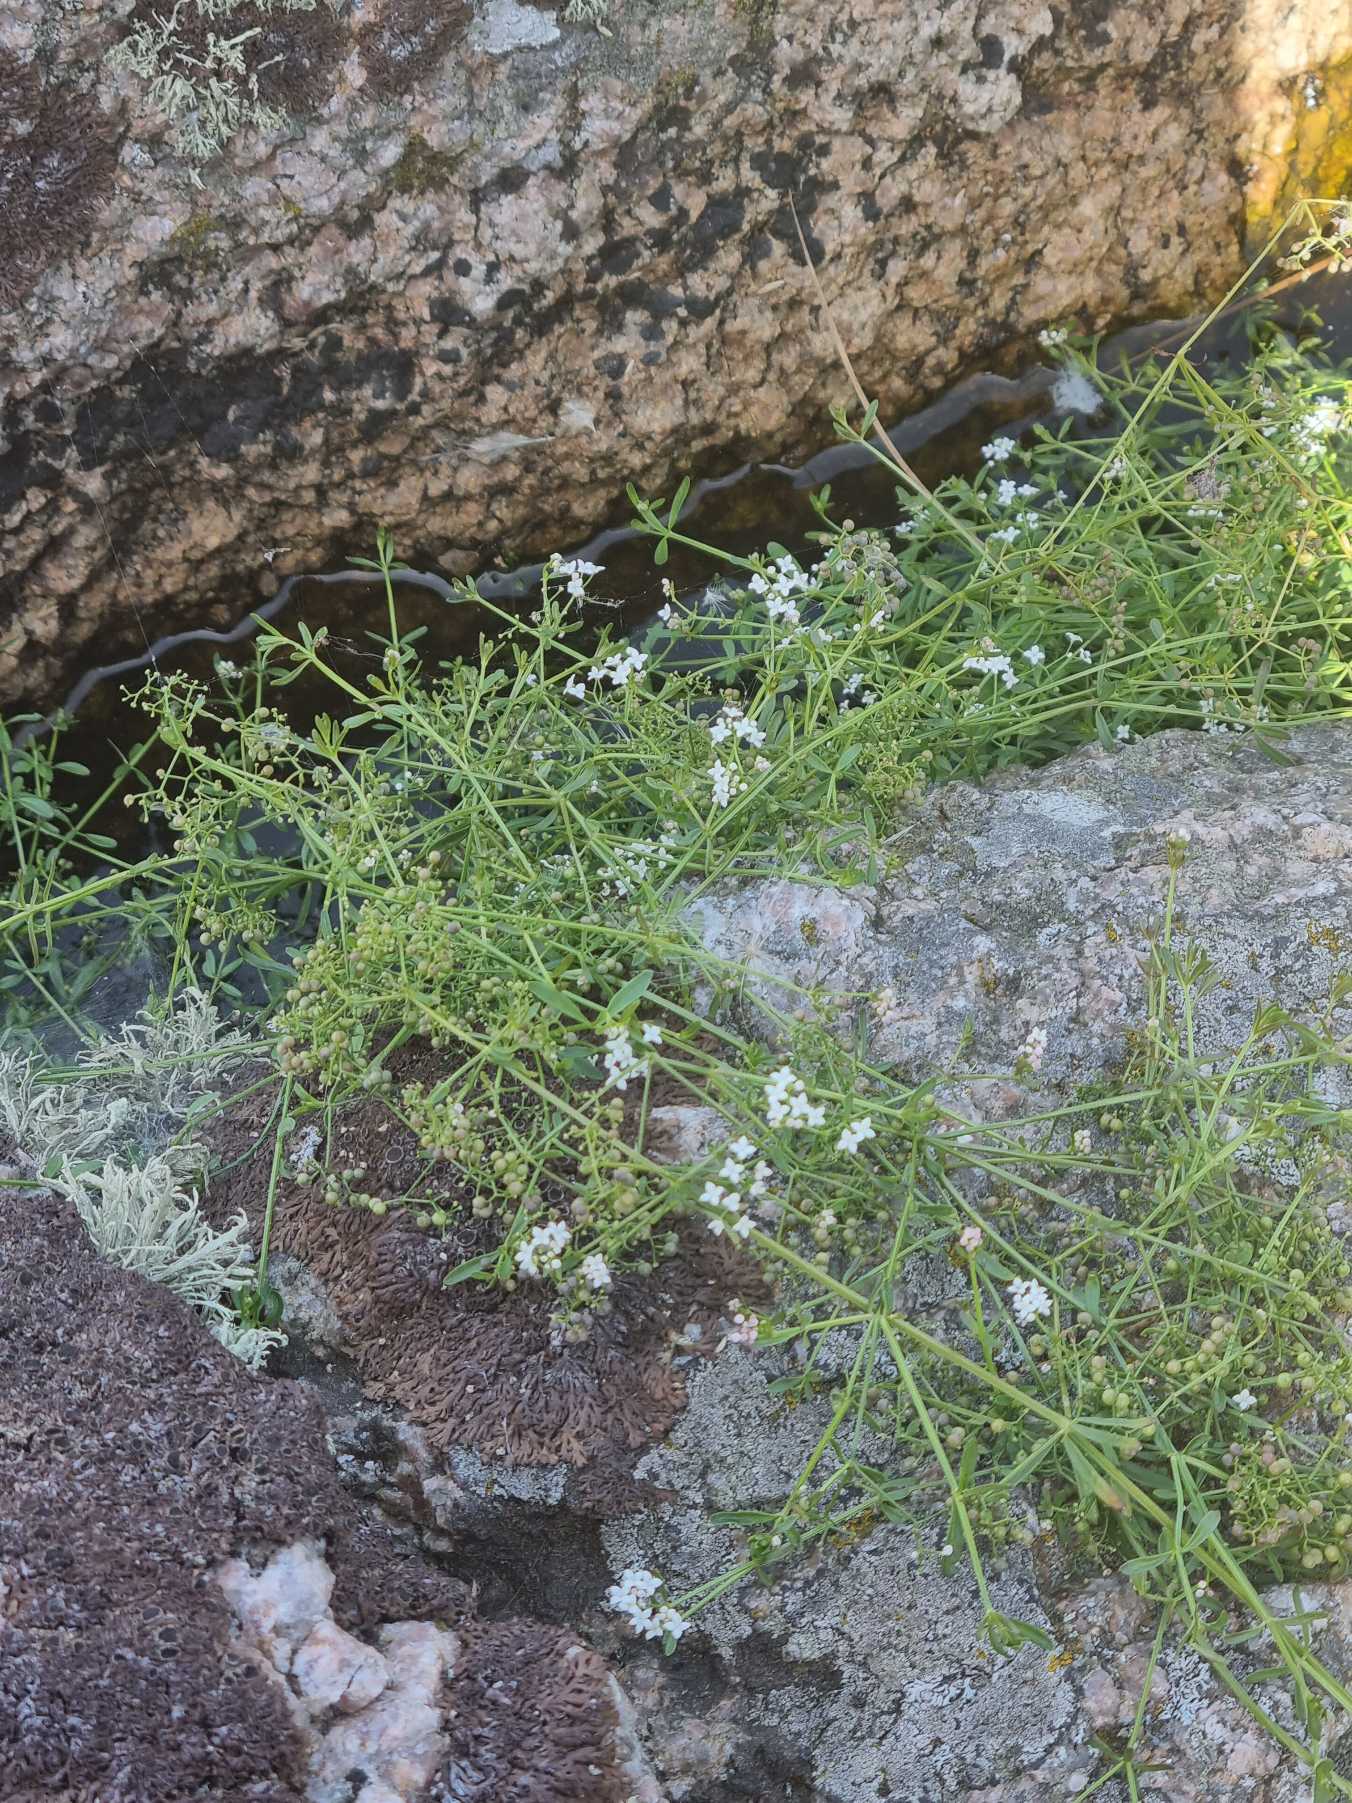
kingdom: Plantae
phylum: Tracheophyta
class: Magnoliopsida
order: Gentianales
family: Rubiaceae
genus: Galium
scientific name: Galium palustre
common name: Kær-snerre
